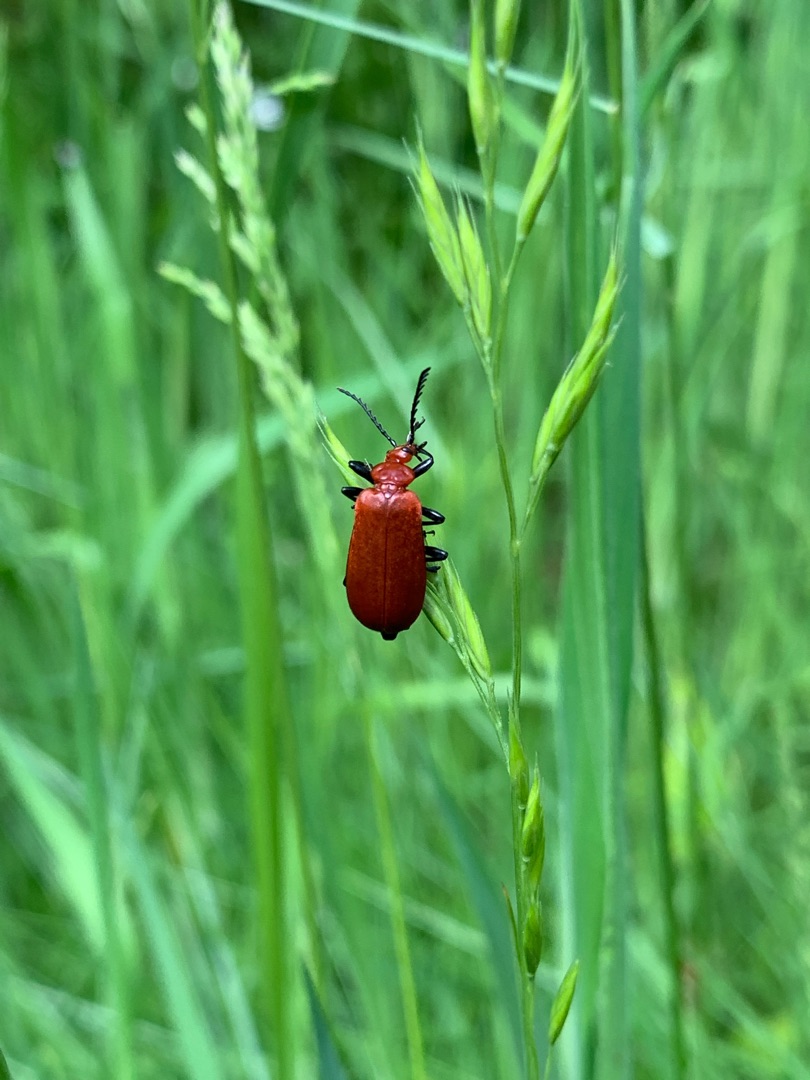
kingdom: Animalia
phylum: Arthropoda
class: Insecta
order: Coleoptera
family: Pyrochroidae
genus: Pyrochroa
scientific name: Pyrochroa serraticornis
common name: Rødhovedet kardinalbille
